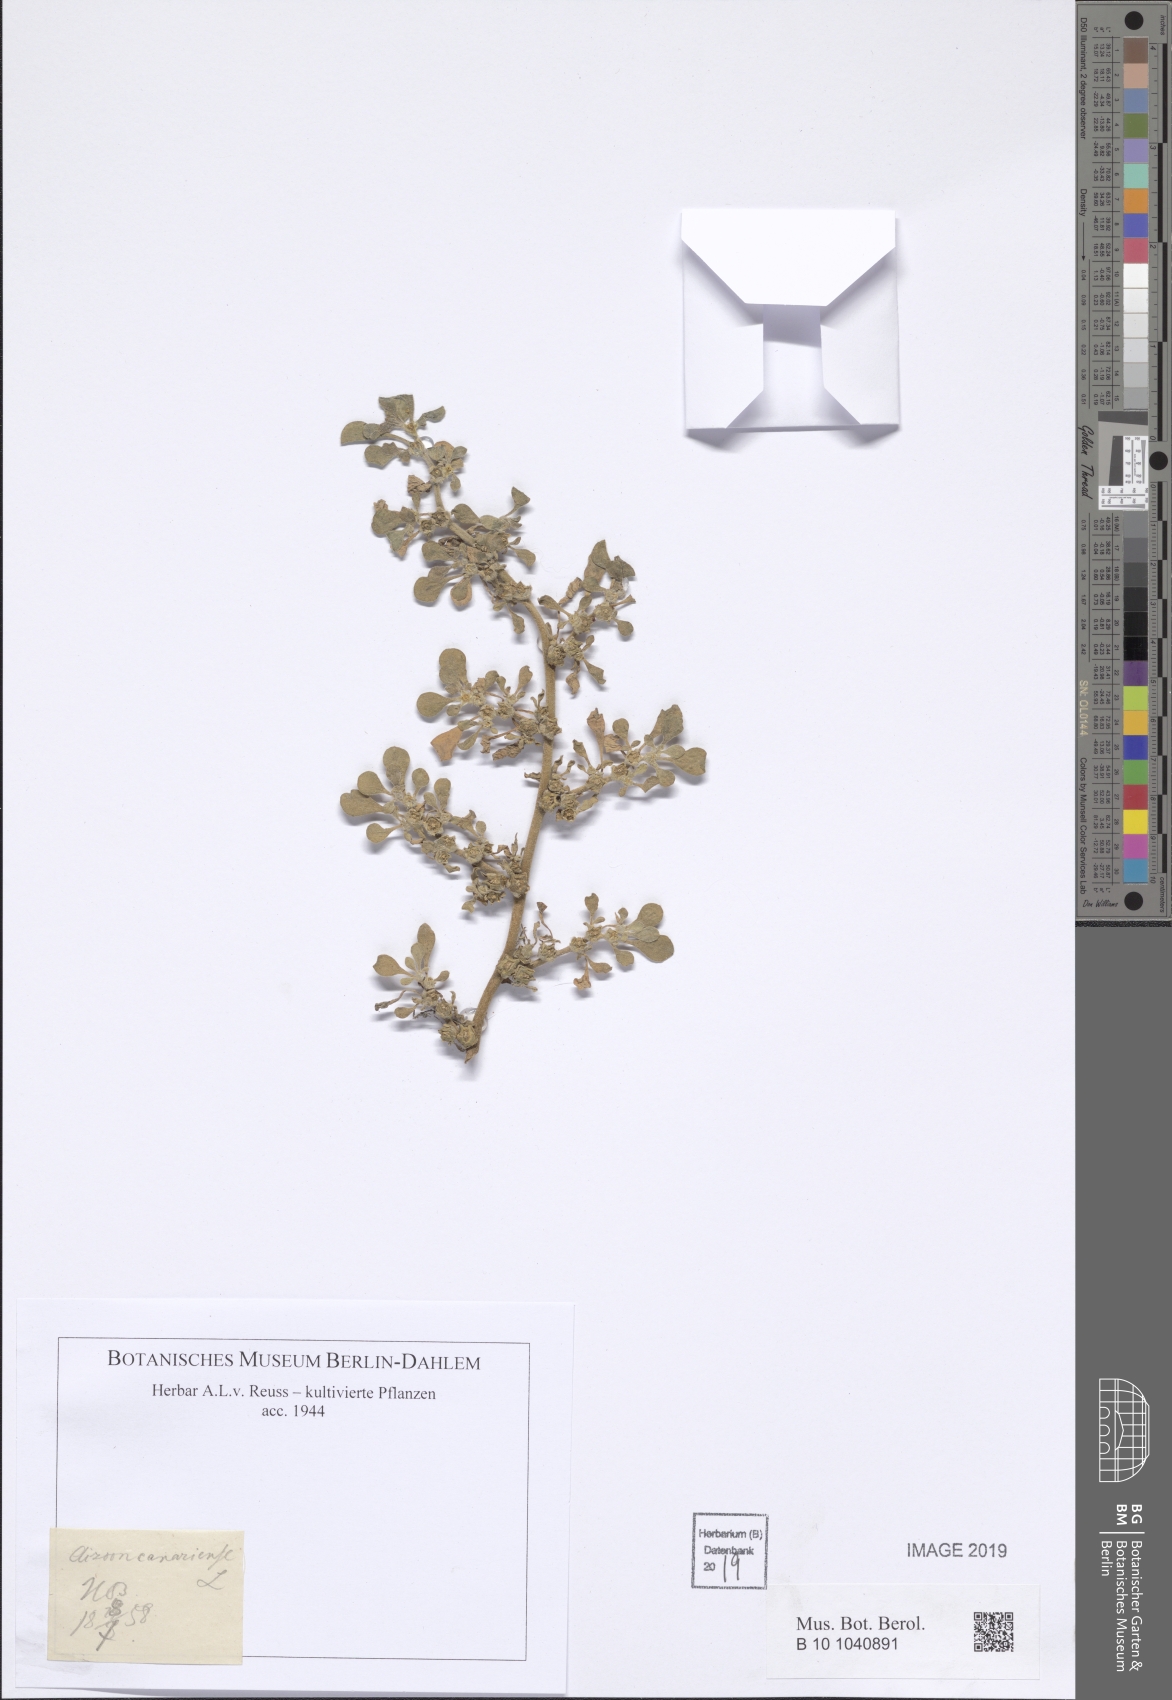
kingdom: Plantae
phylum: Tracheophyta
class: Magnoliopsida
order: Caryophyllales
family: Aizoaceae
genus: Aizoon
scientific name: Aizoon canariense
